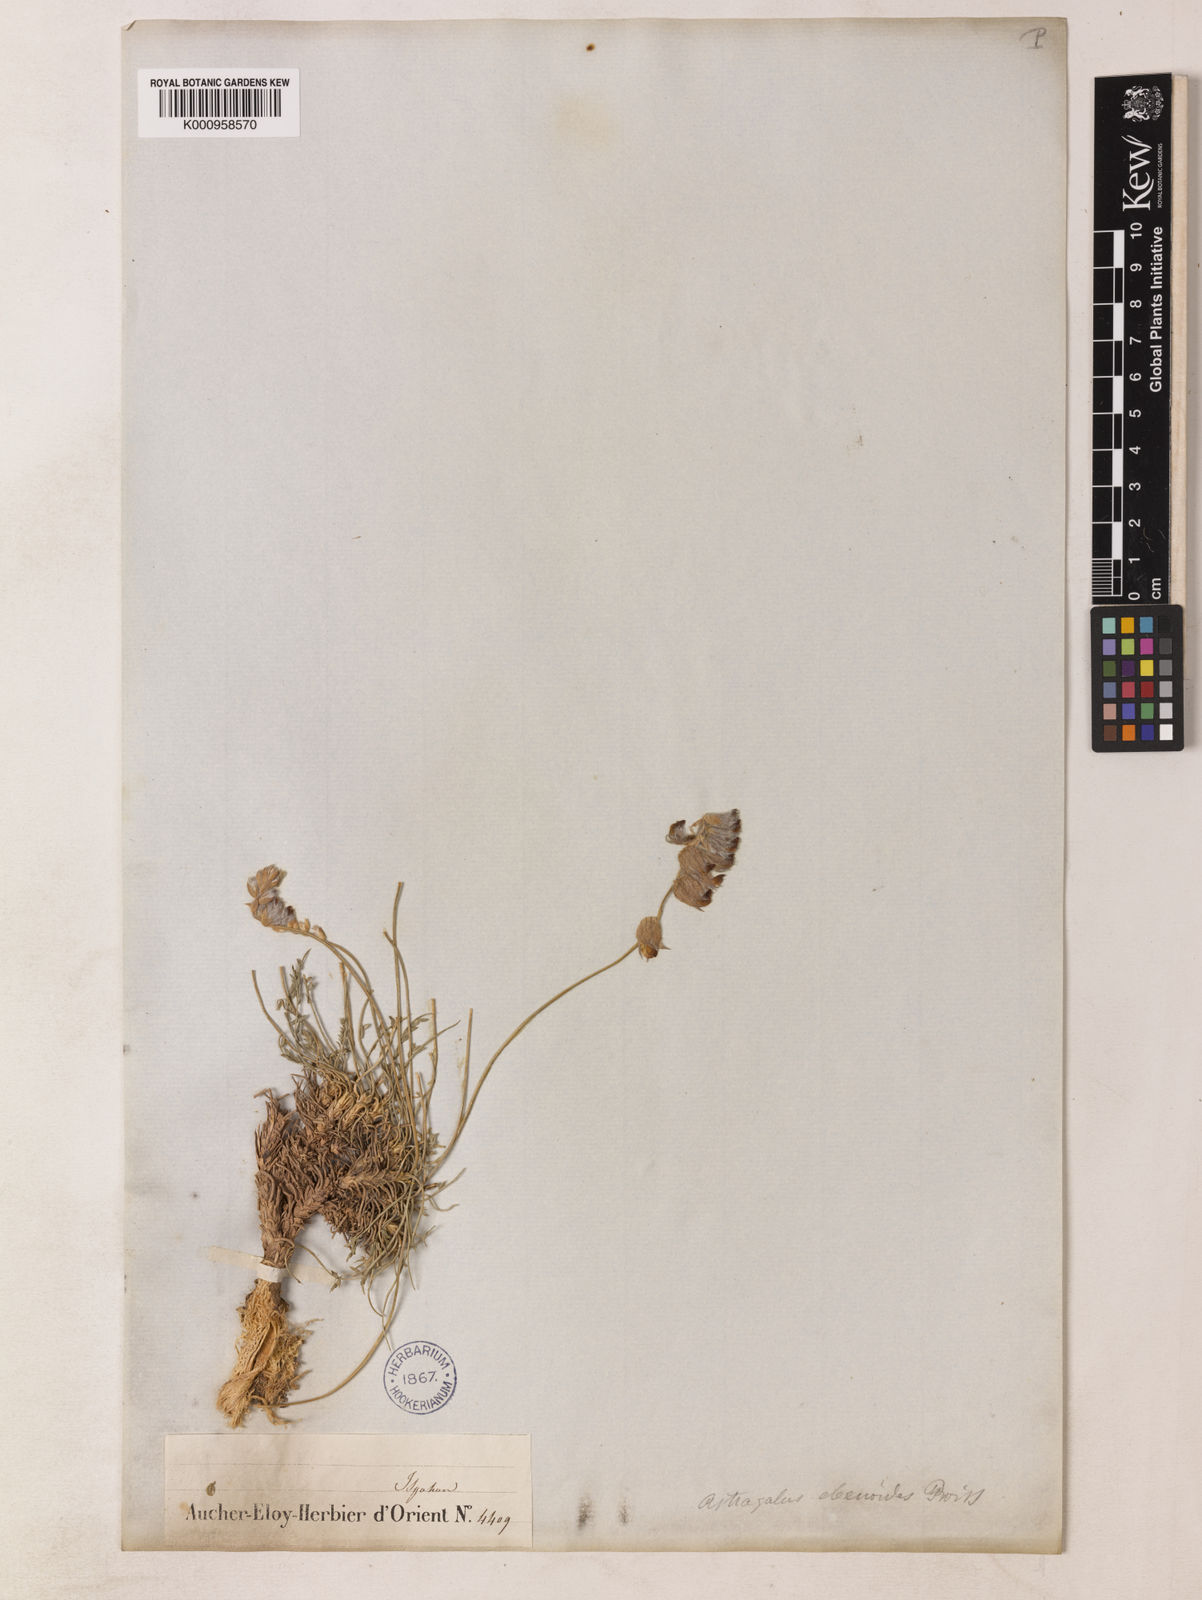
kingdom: Plantae
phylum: Tracheophyta
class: Magnoliopsida
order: Fabales
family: Fabaceae
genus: Astragalus
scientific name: Astragalus ebenoides
